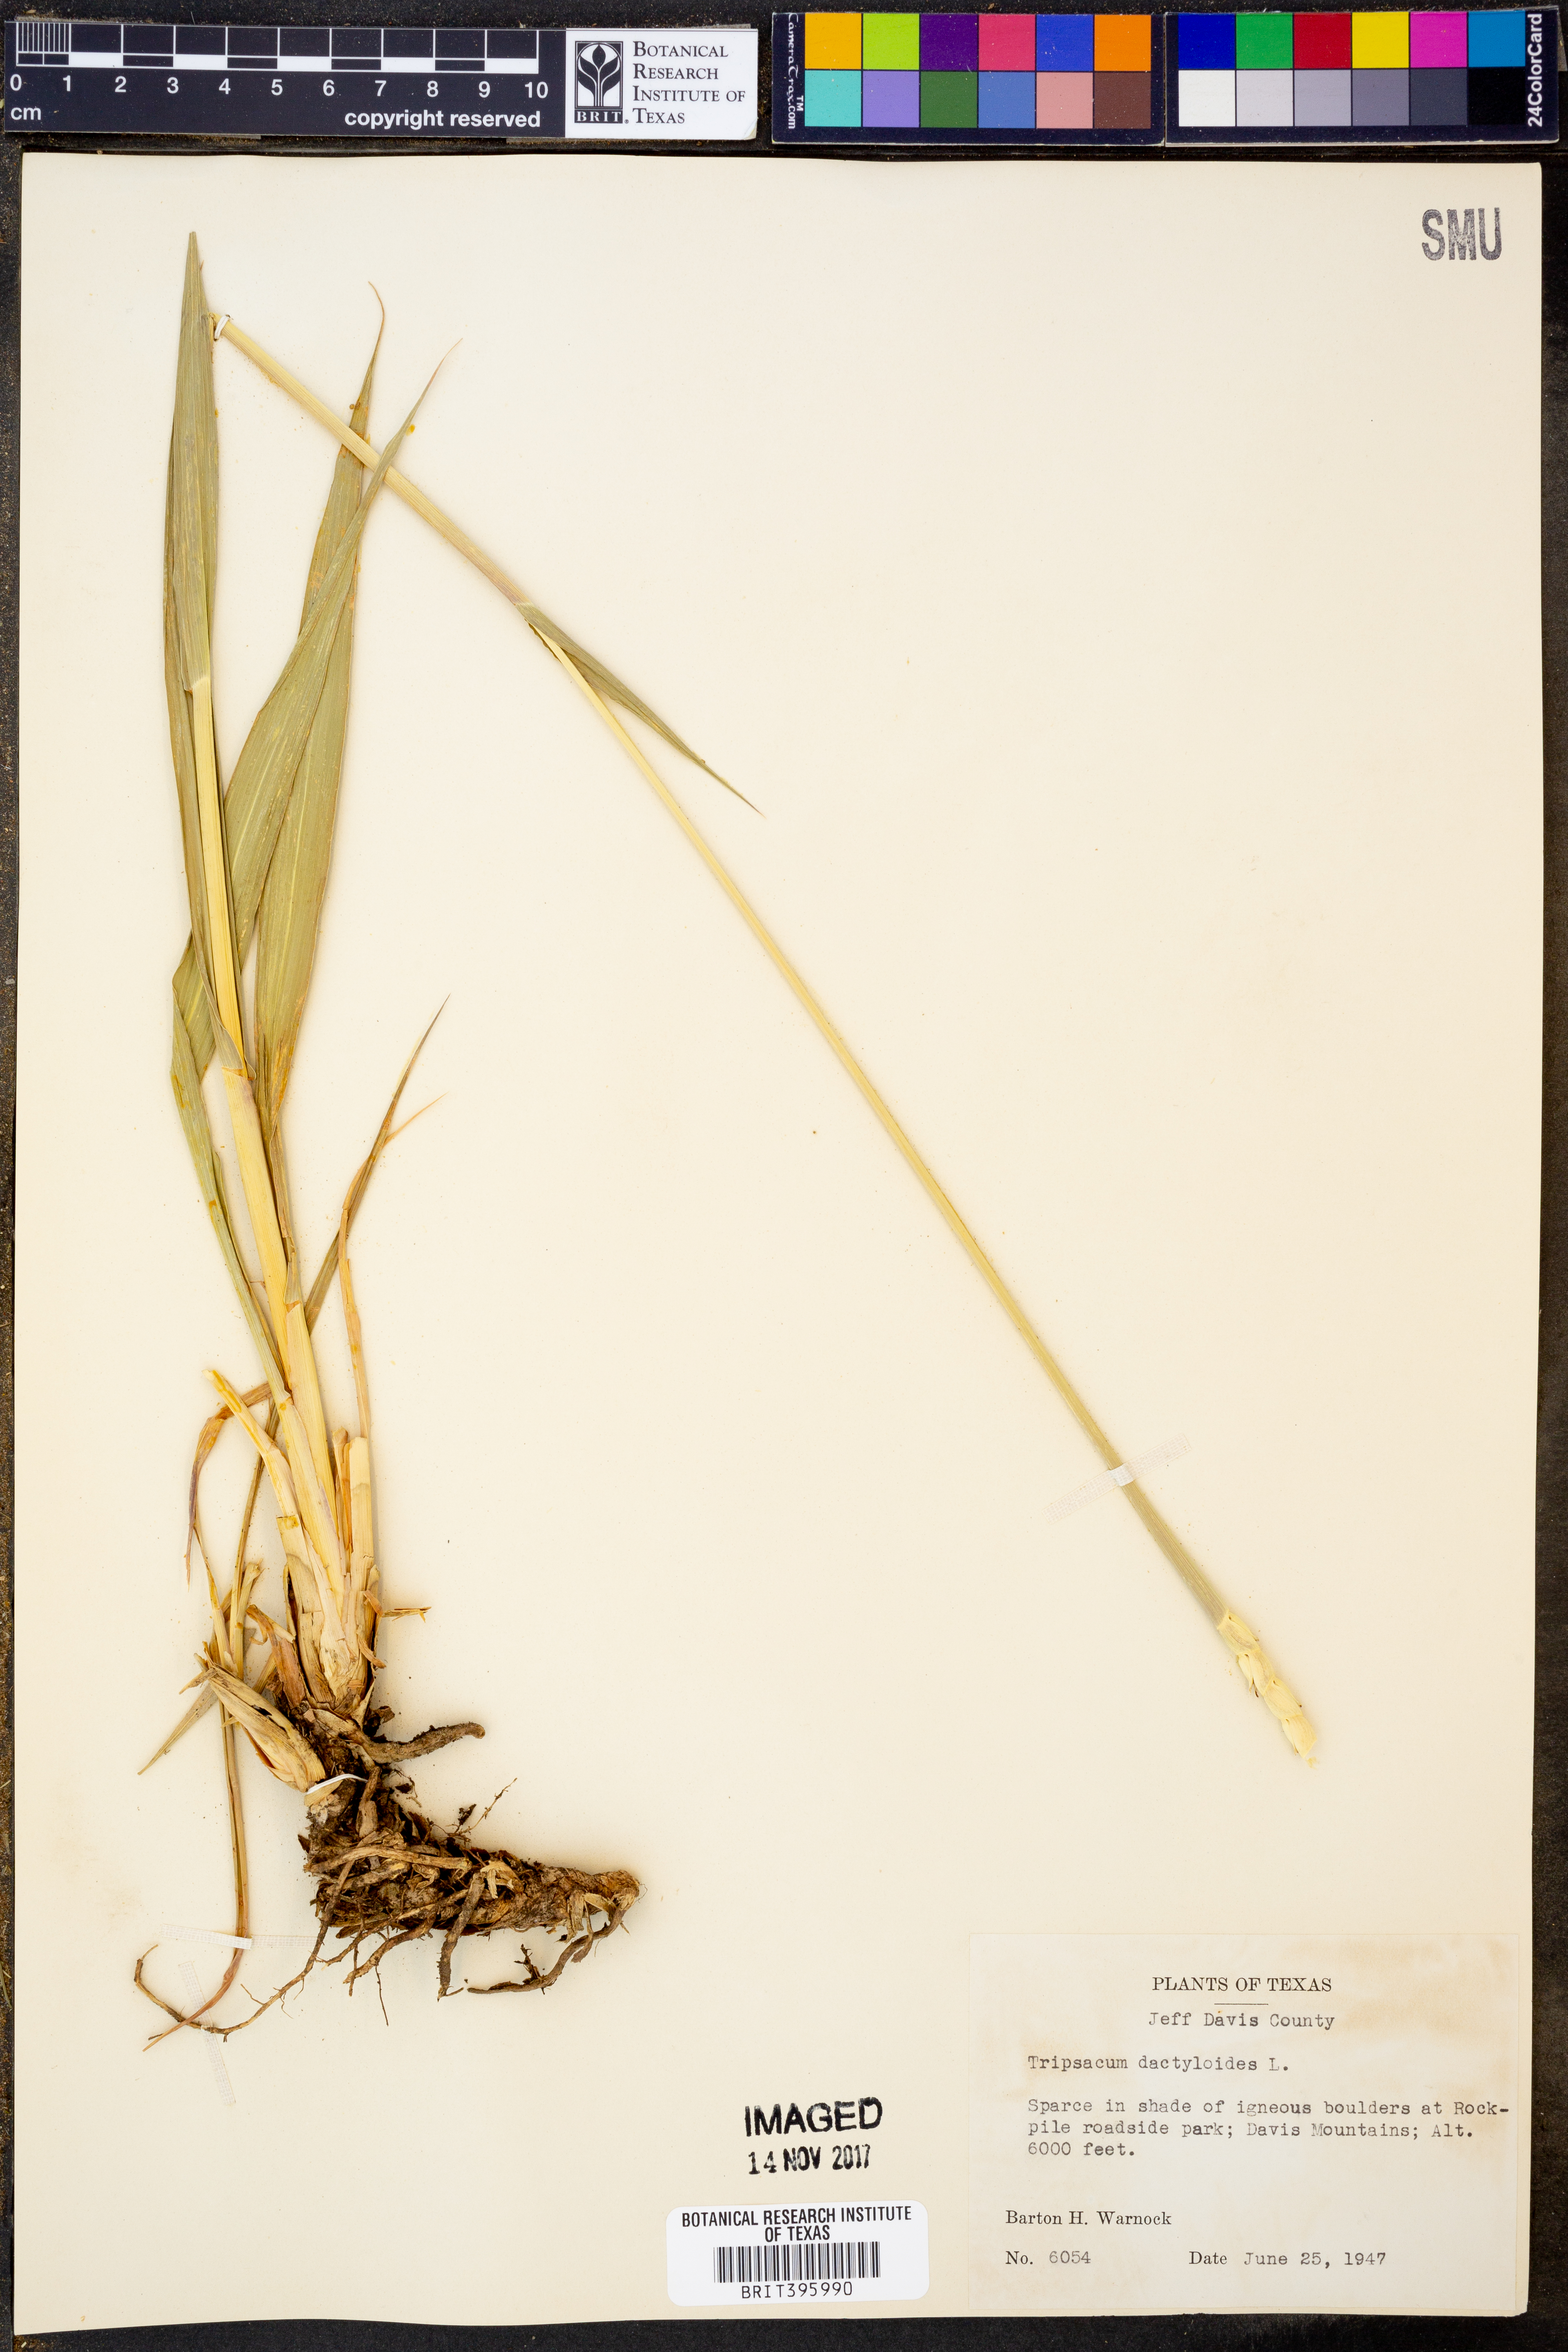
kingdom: Plantae
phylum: Tracheophyta
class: Liliopsida
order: Poales
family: Poaceae
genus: Tripsacum
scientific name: Tripsacum dactyloides
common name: Buffalo-grass
